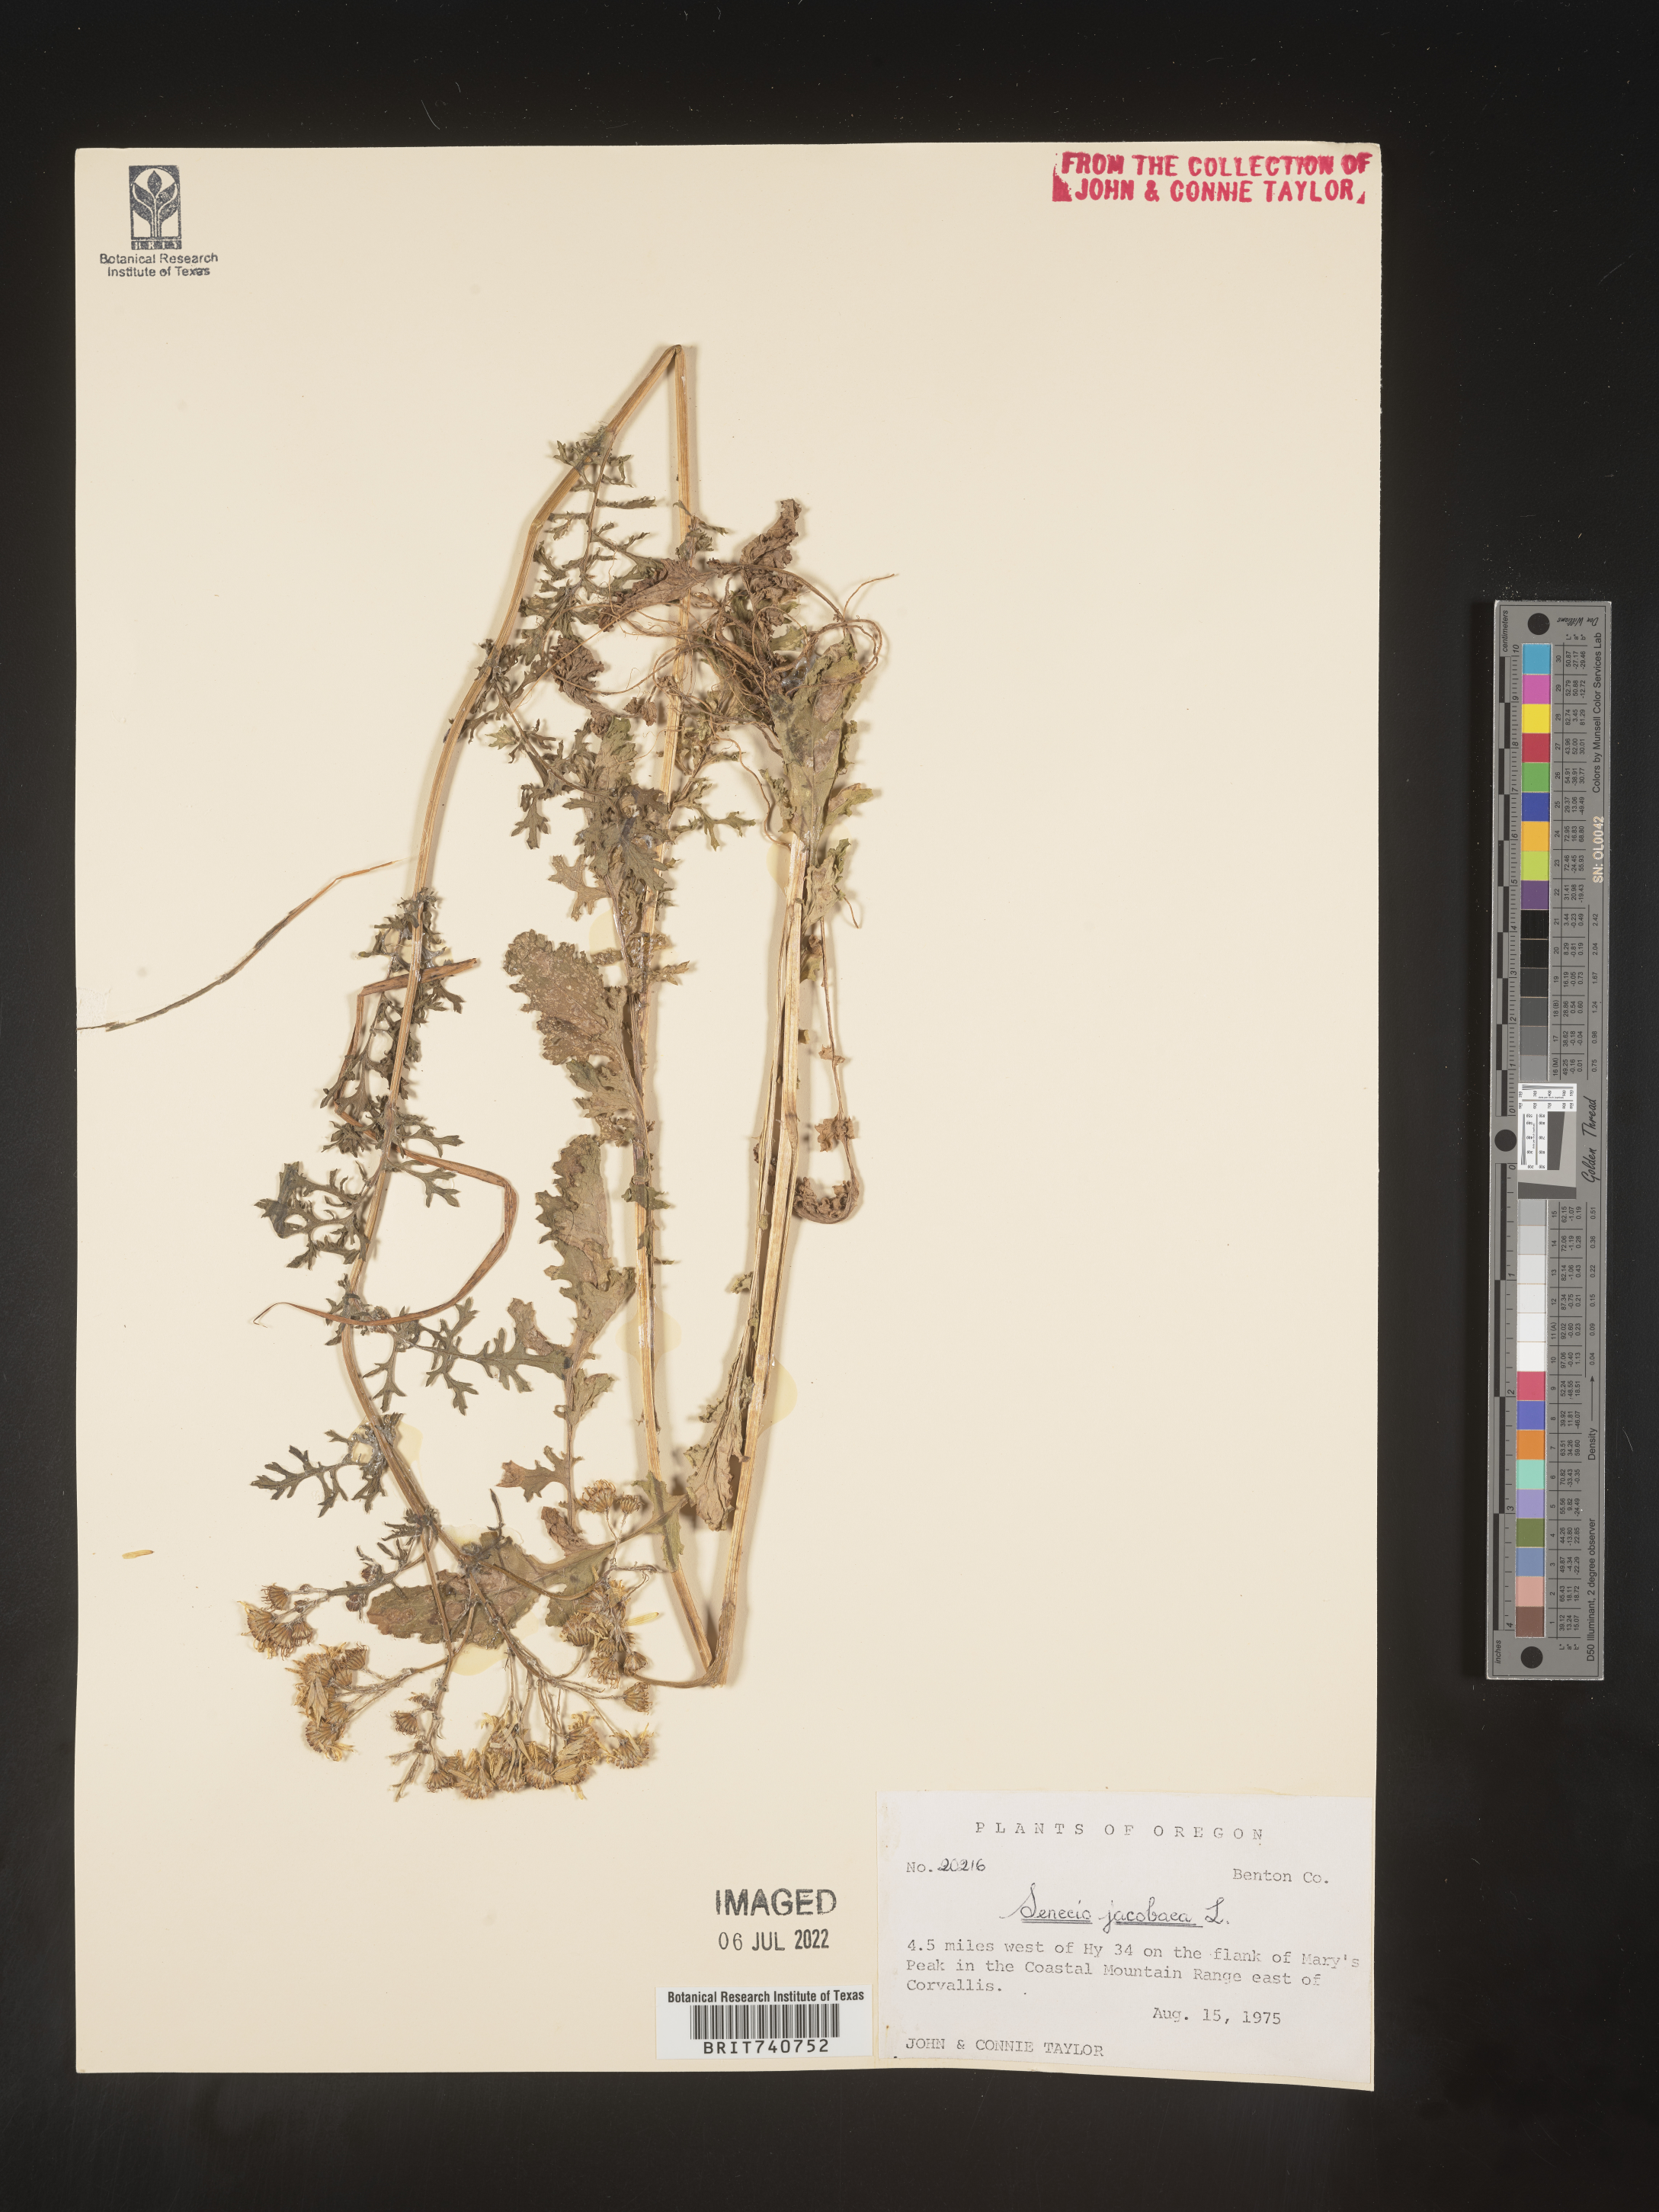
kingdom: Plantae
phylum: Tracheophyta
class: Magnoliopsida
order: Asterales
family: Asteraceae
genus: Jacobaea
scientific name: Jacobaea vulgaris
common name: Stinking willie
